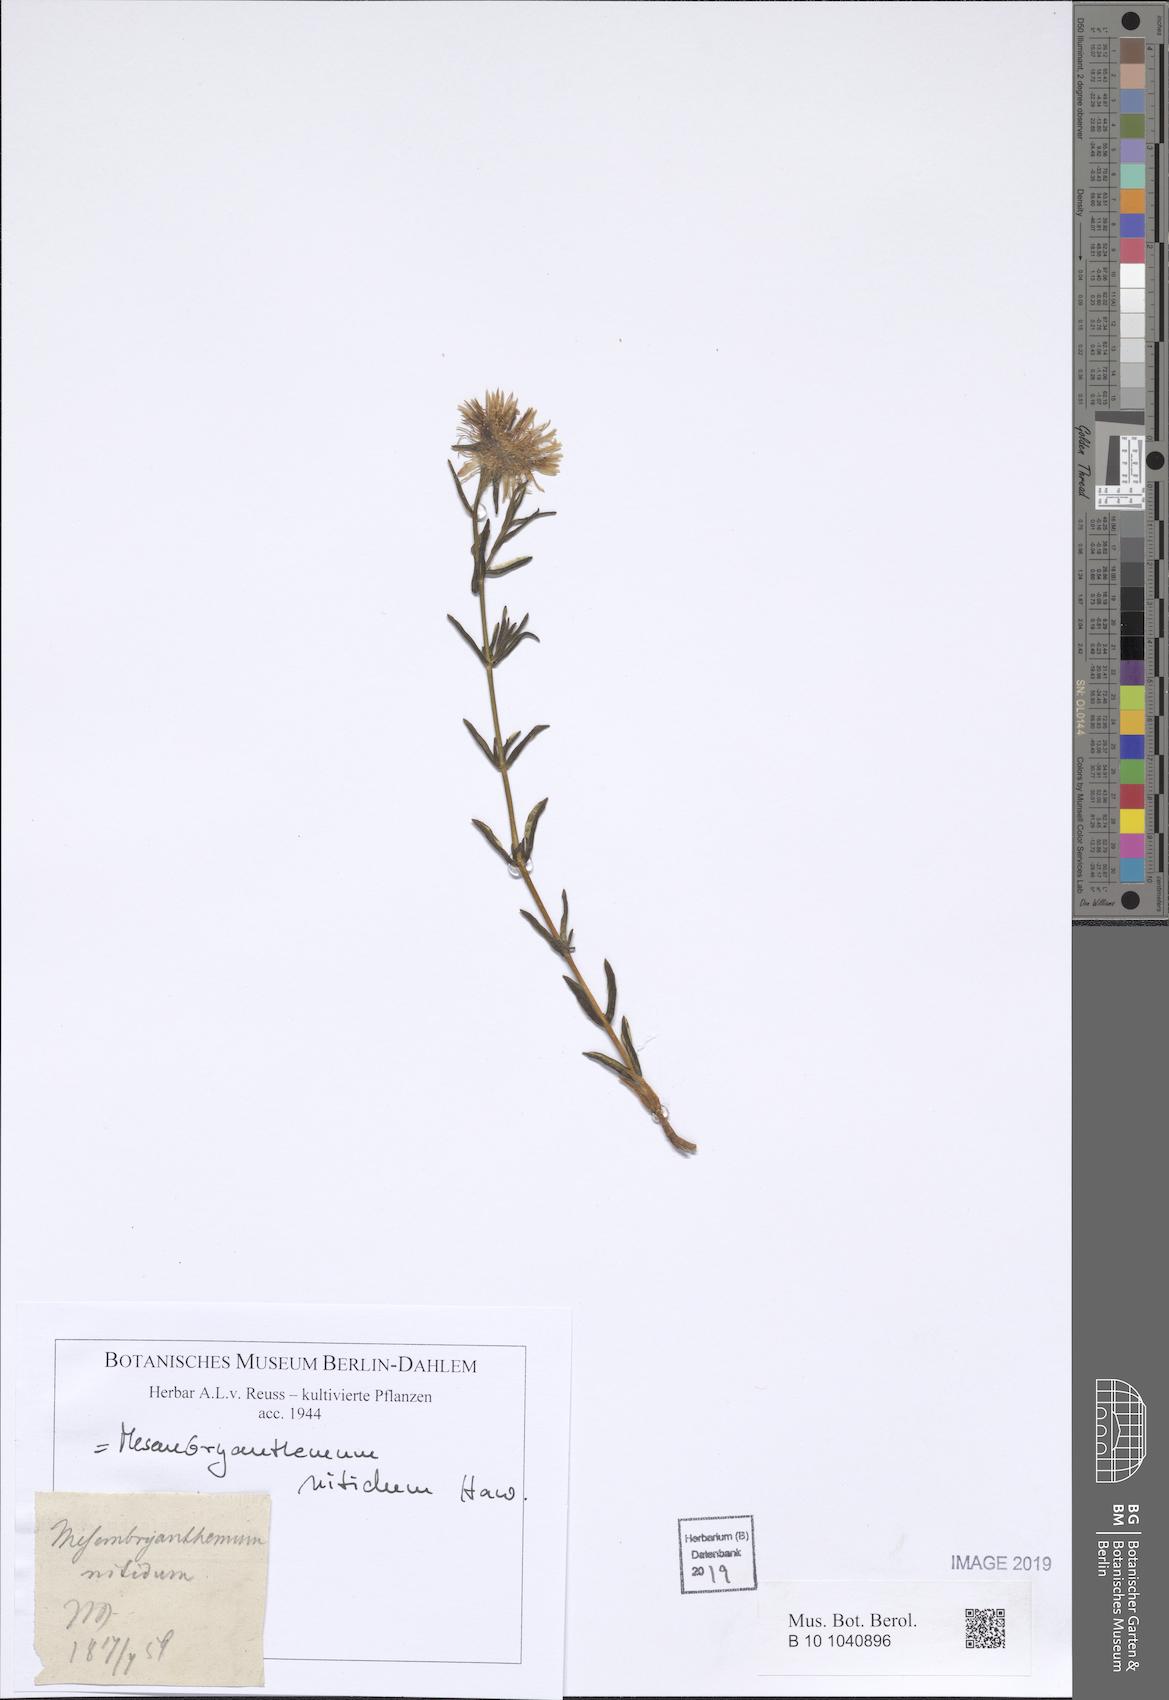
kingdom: Plantae
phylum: Tracheophyta
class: Magnoliopsida
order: Caryophyllales
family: Aizoaceae
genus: Mesembryanthemum
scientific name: Mesembryanthemum nitidum
